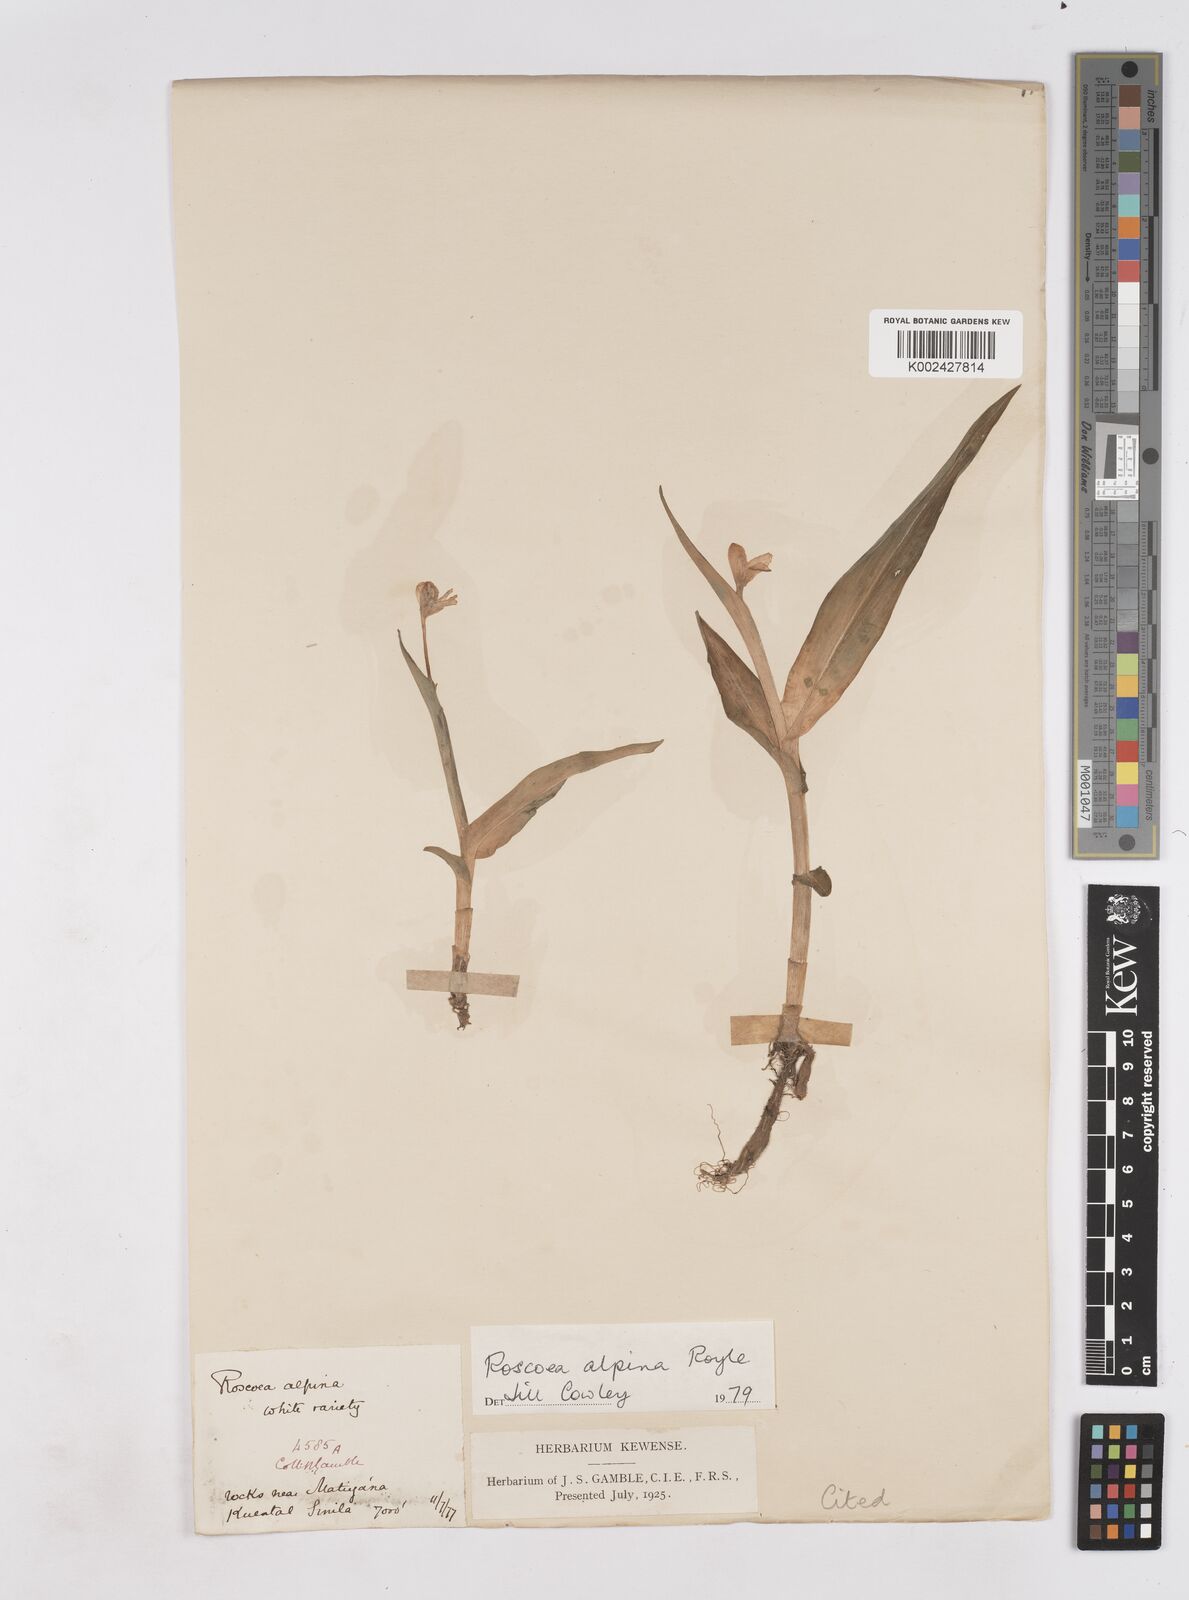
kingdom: Plantae
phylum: Tracheophyta
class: Liliopsida
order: Zingiberales
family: Zingiberaceae
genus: Roscoea
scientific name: Roscoea alpina
